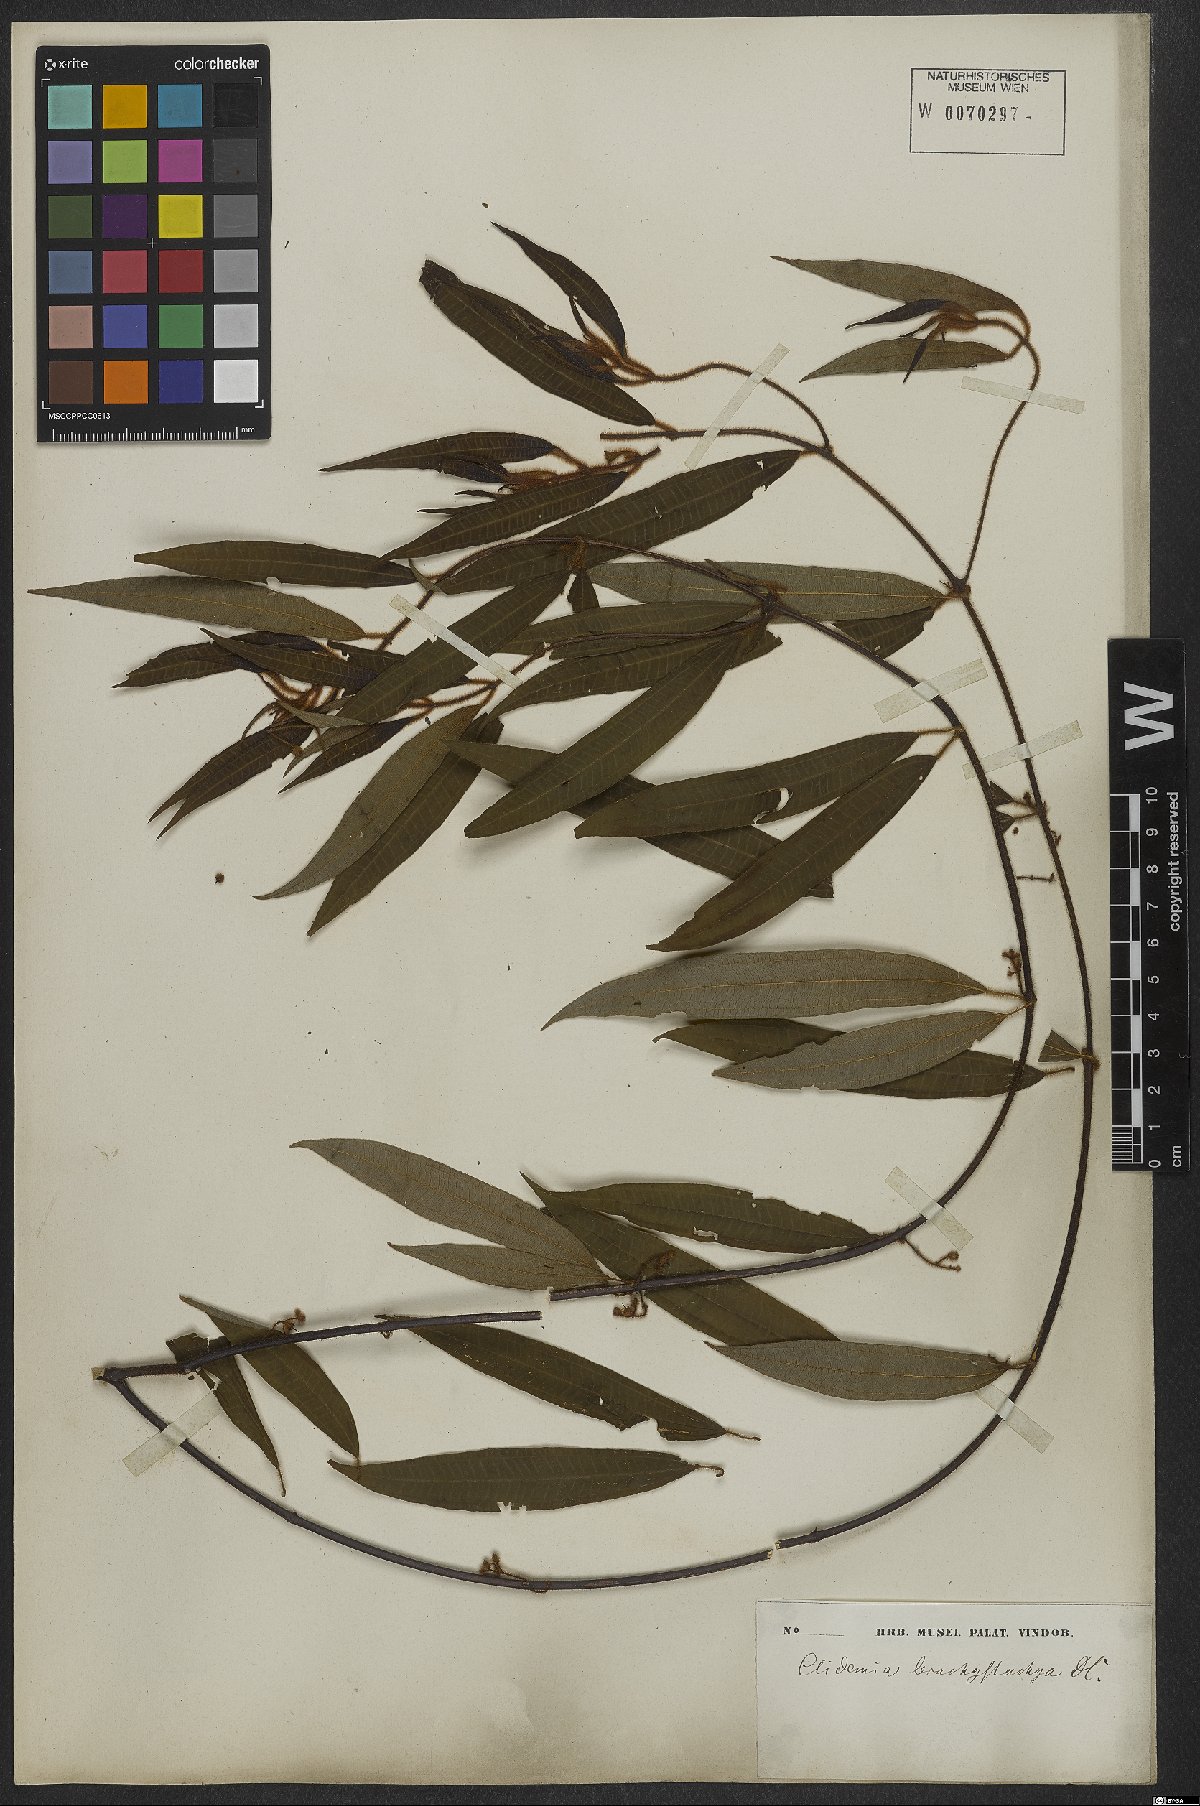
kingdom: Plantae
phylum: Tracheophyta
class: Magnoliopsida
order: Myrtales
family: Melastomataceae
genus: Miconia
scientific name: Miconia amygdaloides
